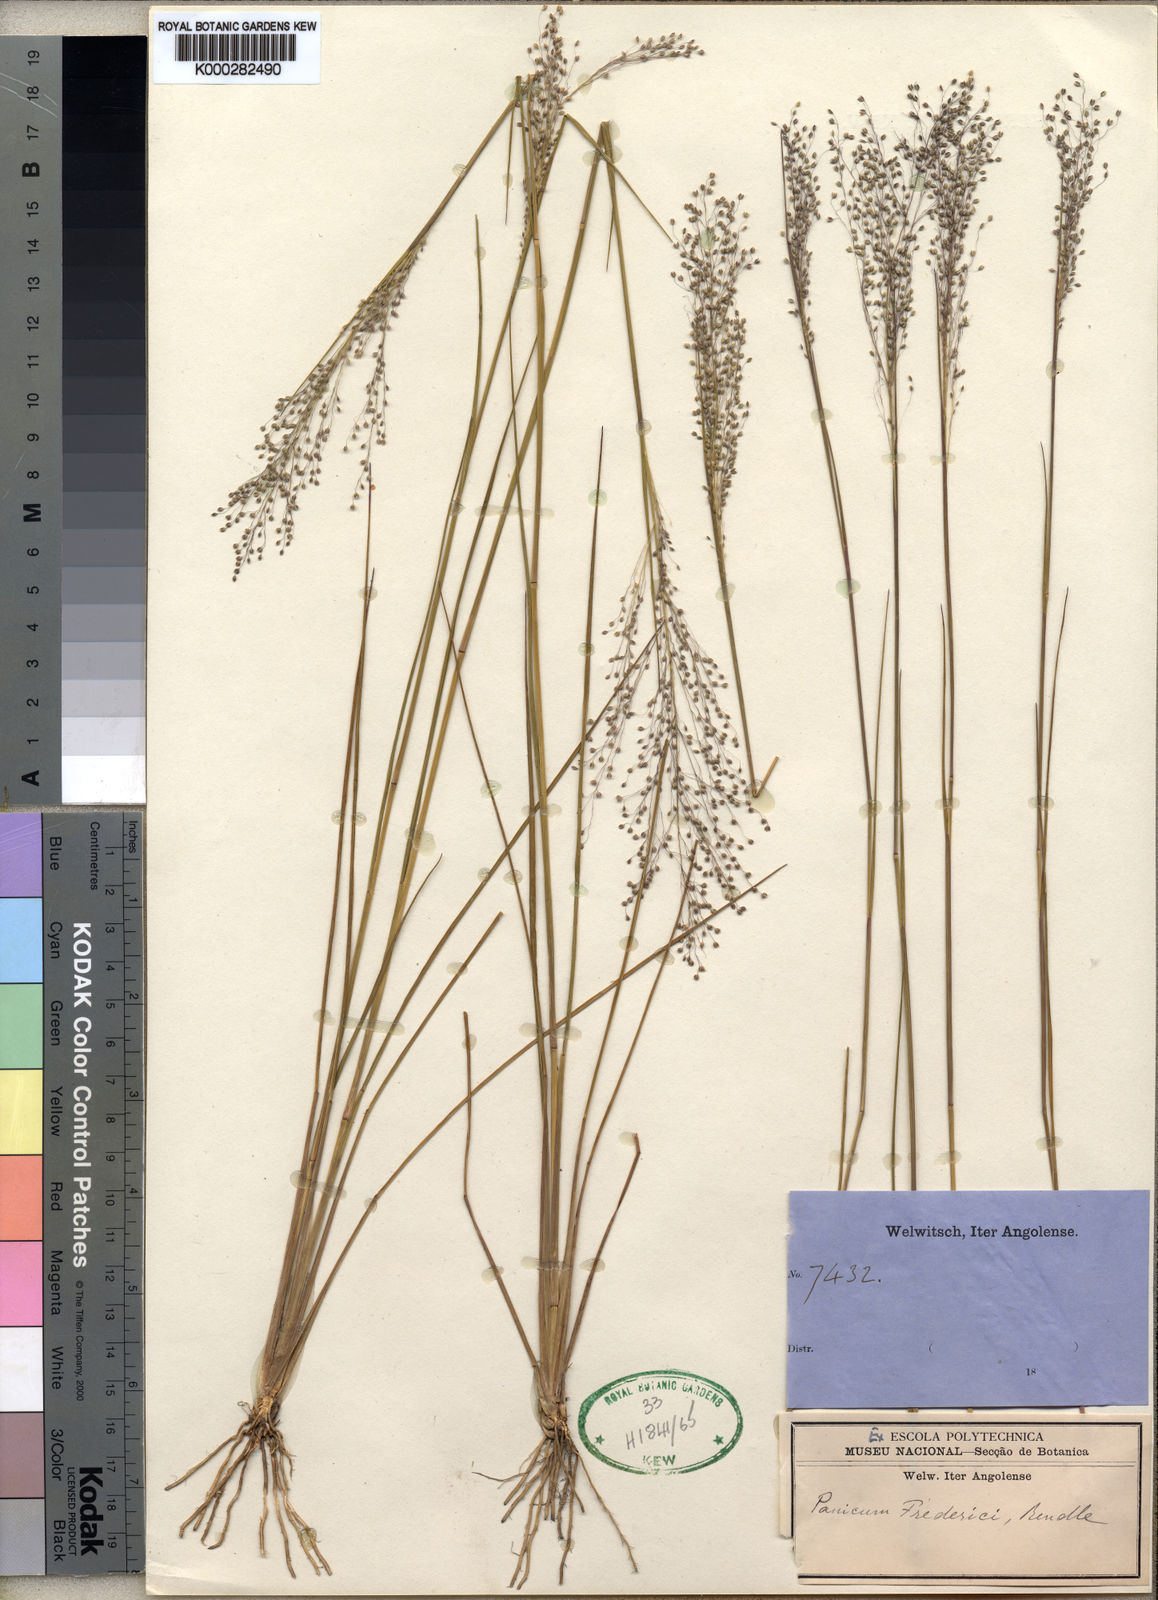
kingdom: Plantae
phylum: Tracheophyta
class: Liliopsida
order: Poales
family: Poaceae
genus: Trichanthecium
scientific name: Trichanthecium brazzavillense
